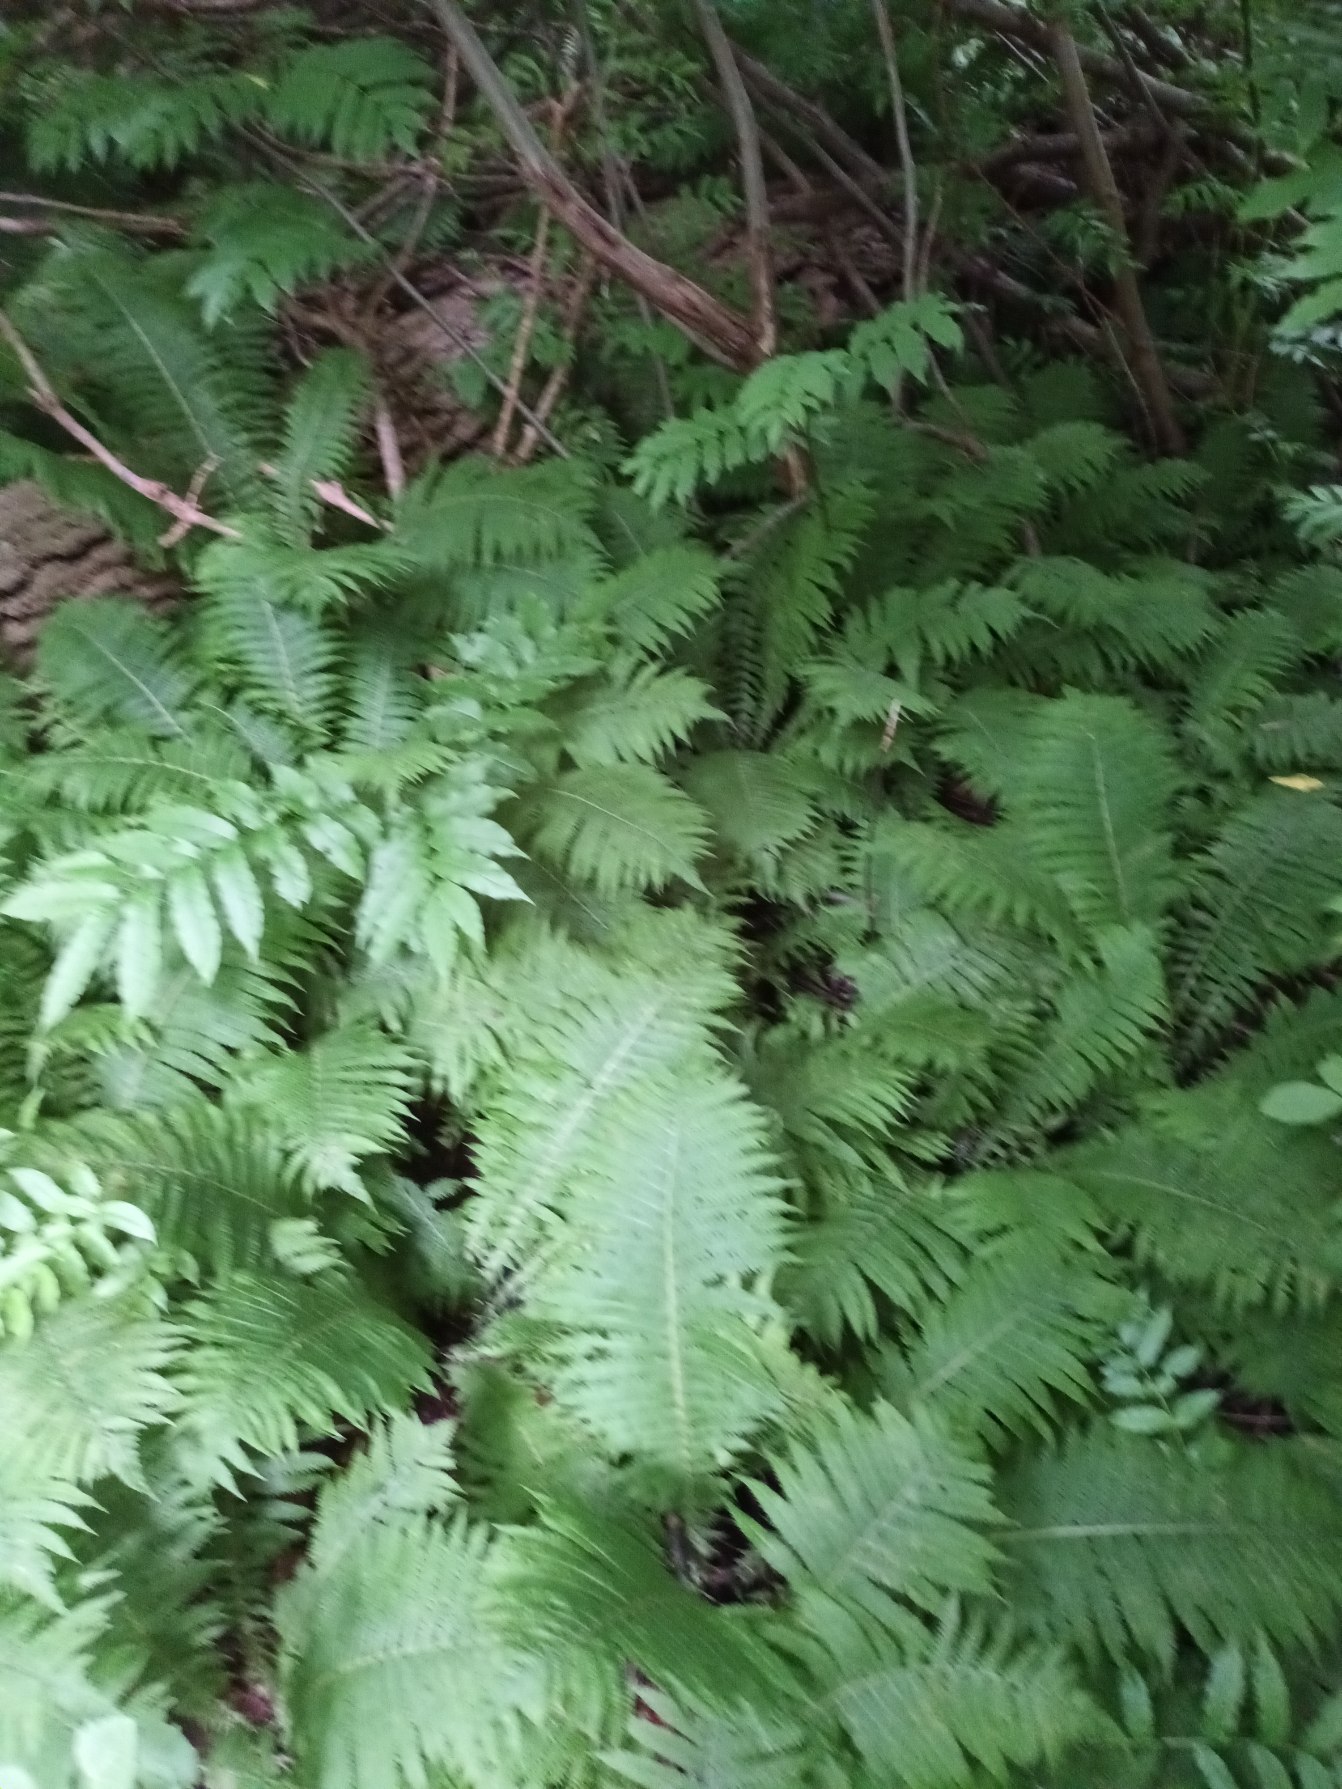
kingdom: Plantae
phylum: Tracheophyta
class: Polypodiopsida
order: Polypodiales
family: Onocleaceae
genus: Matteuccia
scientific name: Matteuccia struthiopteris
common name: Strudsvinge
